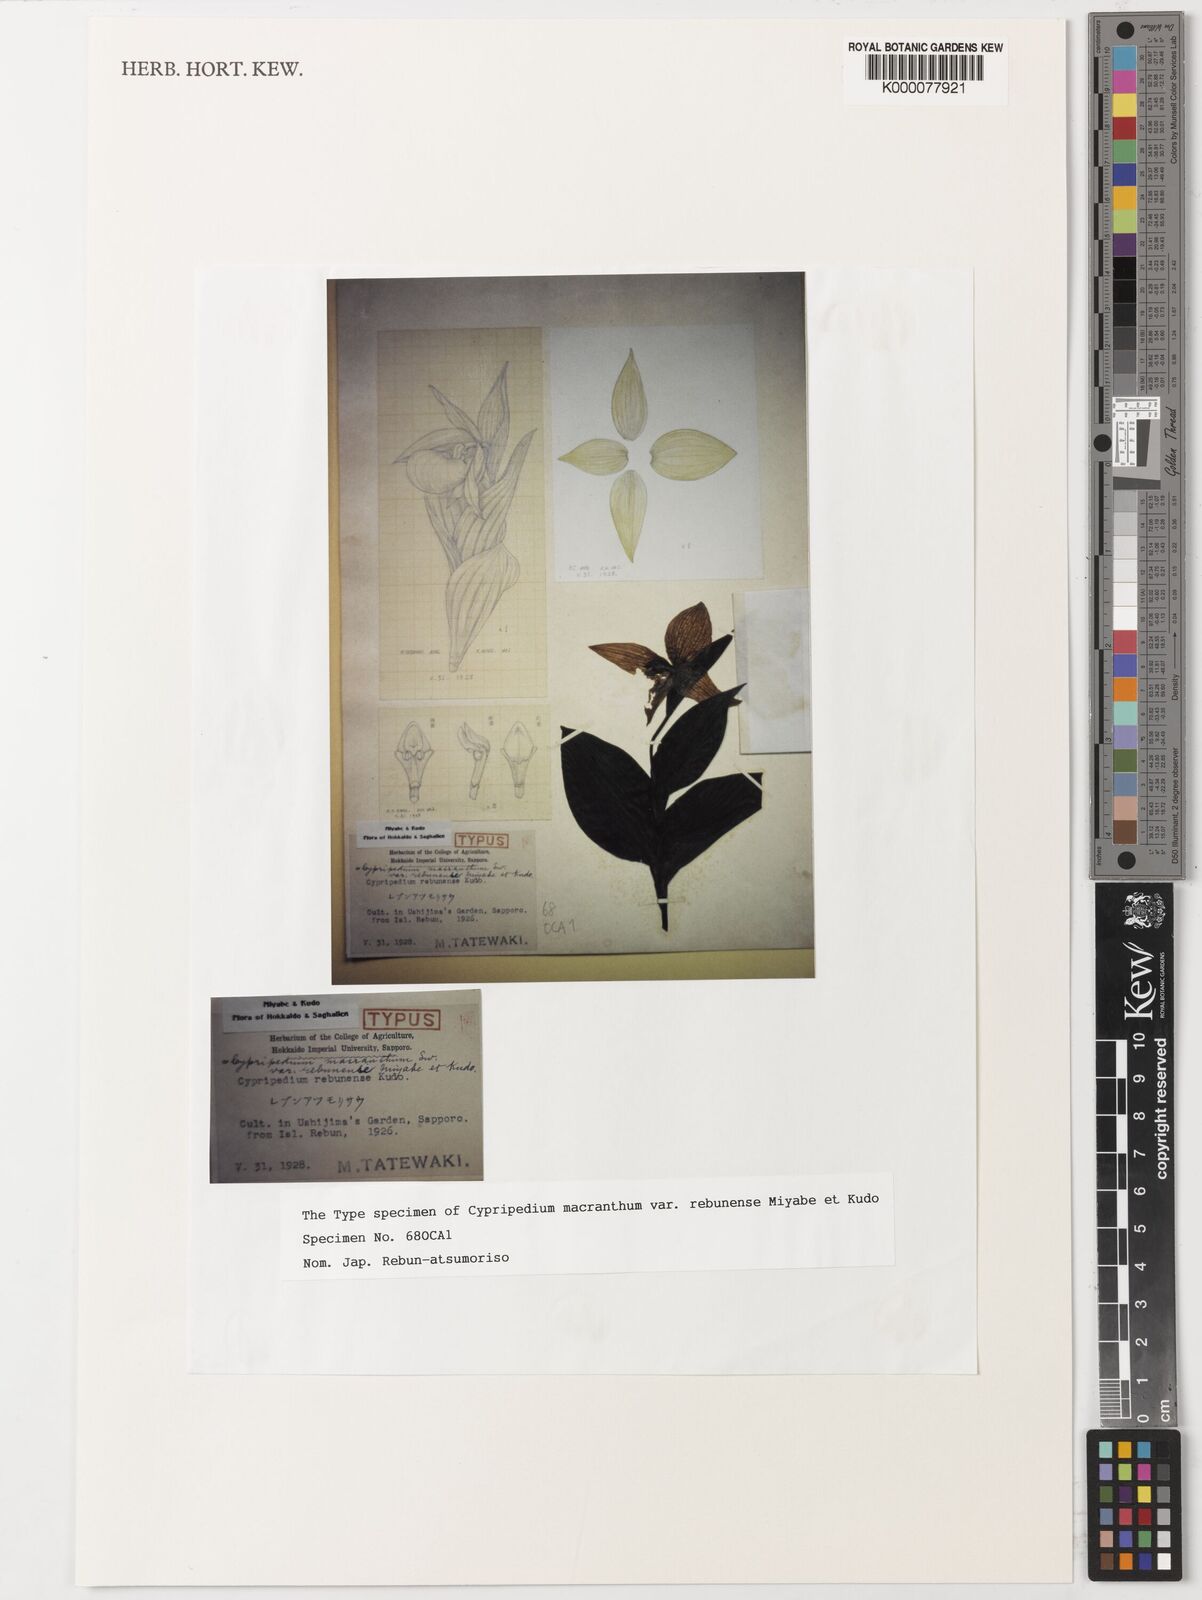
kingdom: Plantae
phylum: Tracheophyta
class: Liliopsida
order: Asparagales
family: Orchidaceae
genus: Cypripedium
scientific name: Cypripedium macranthos
